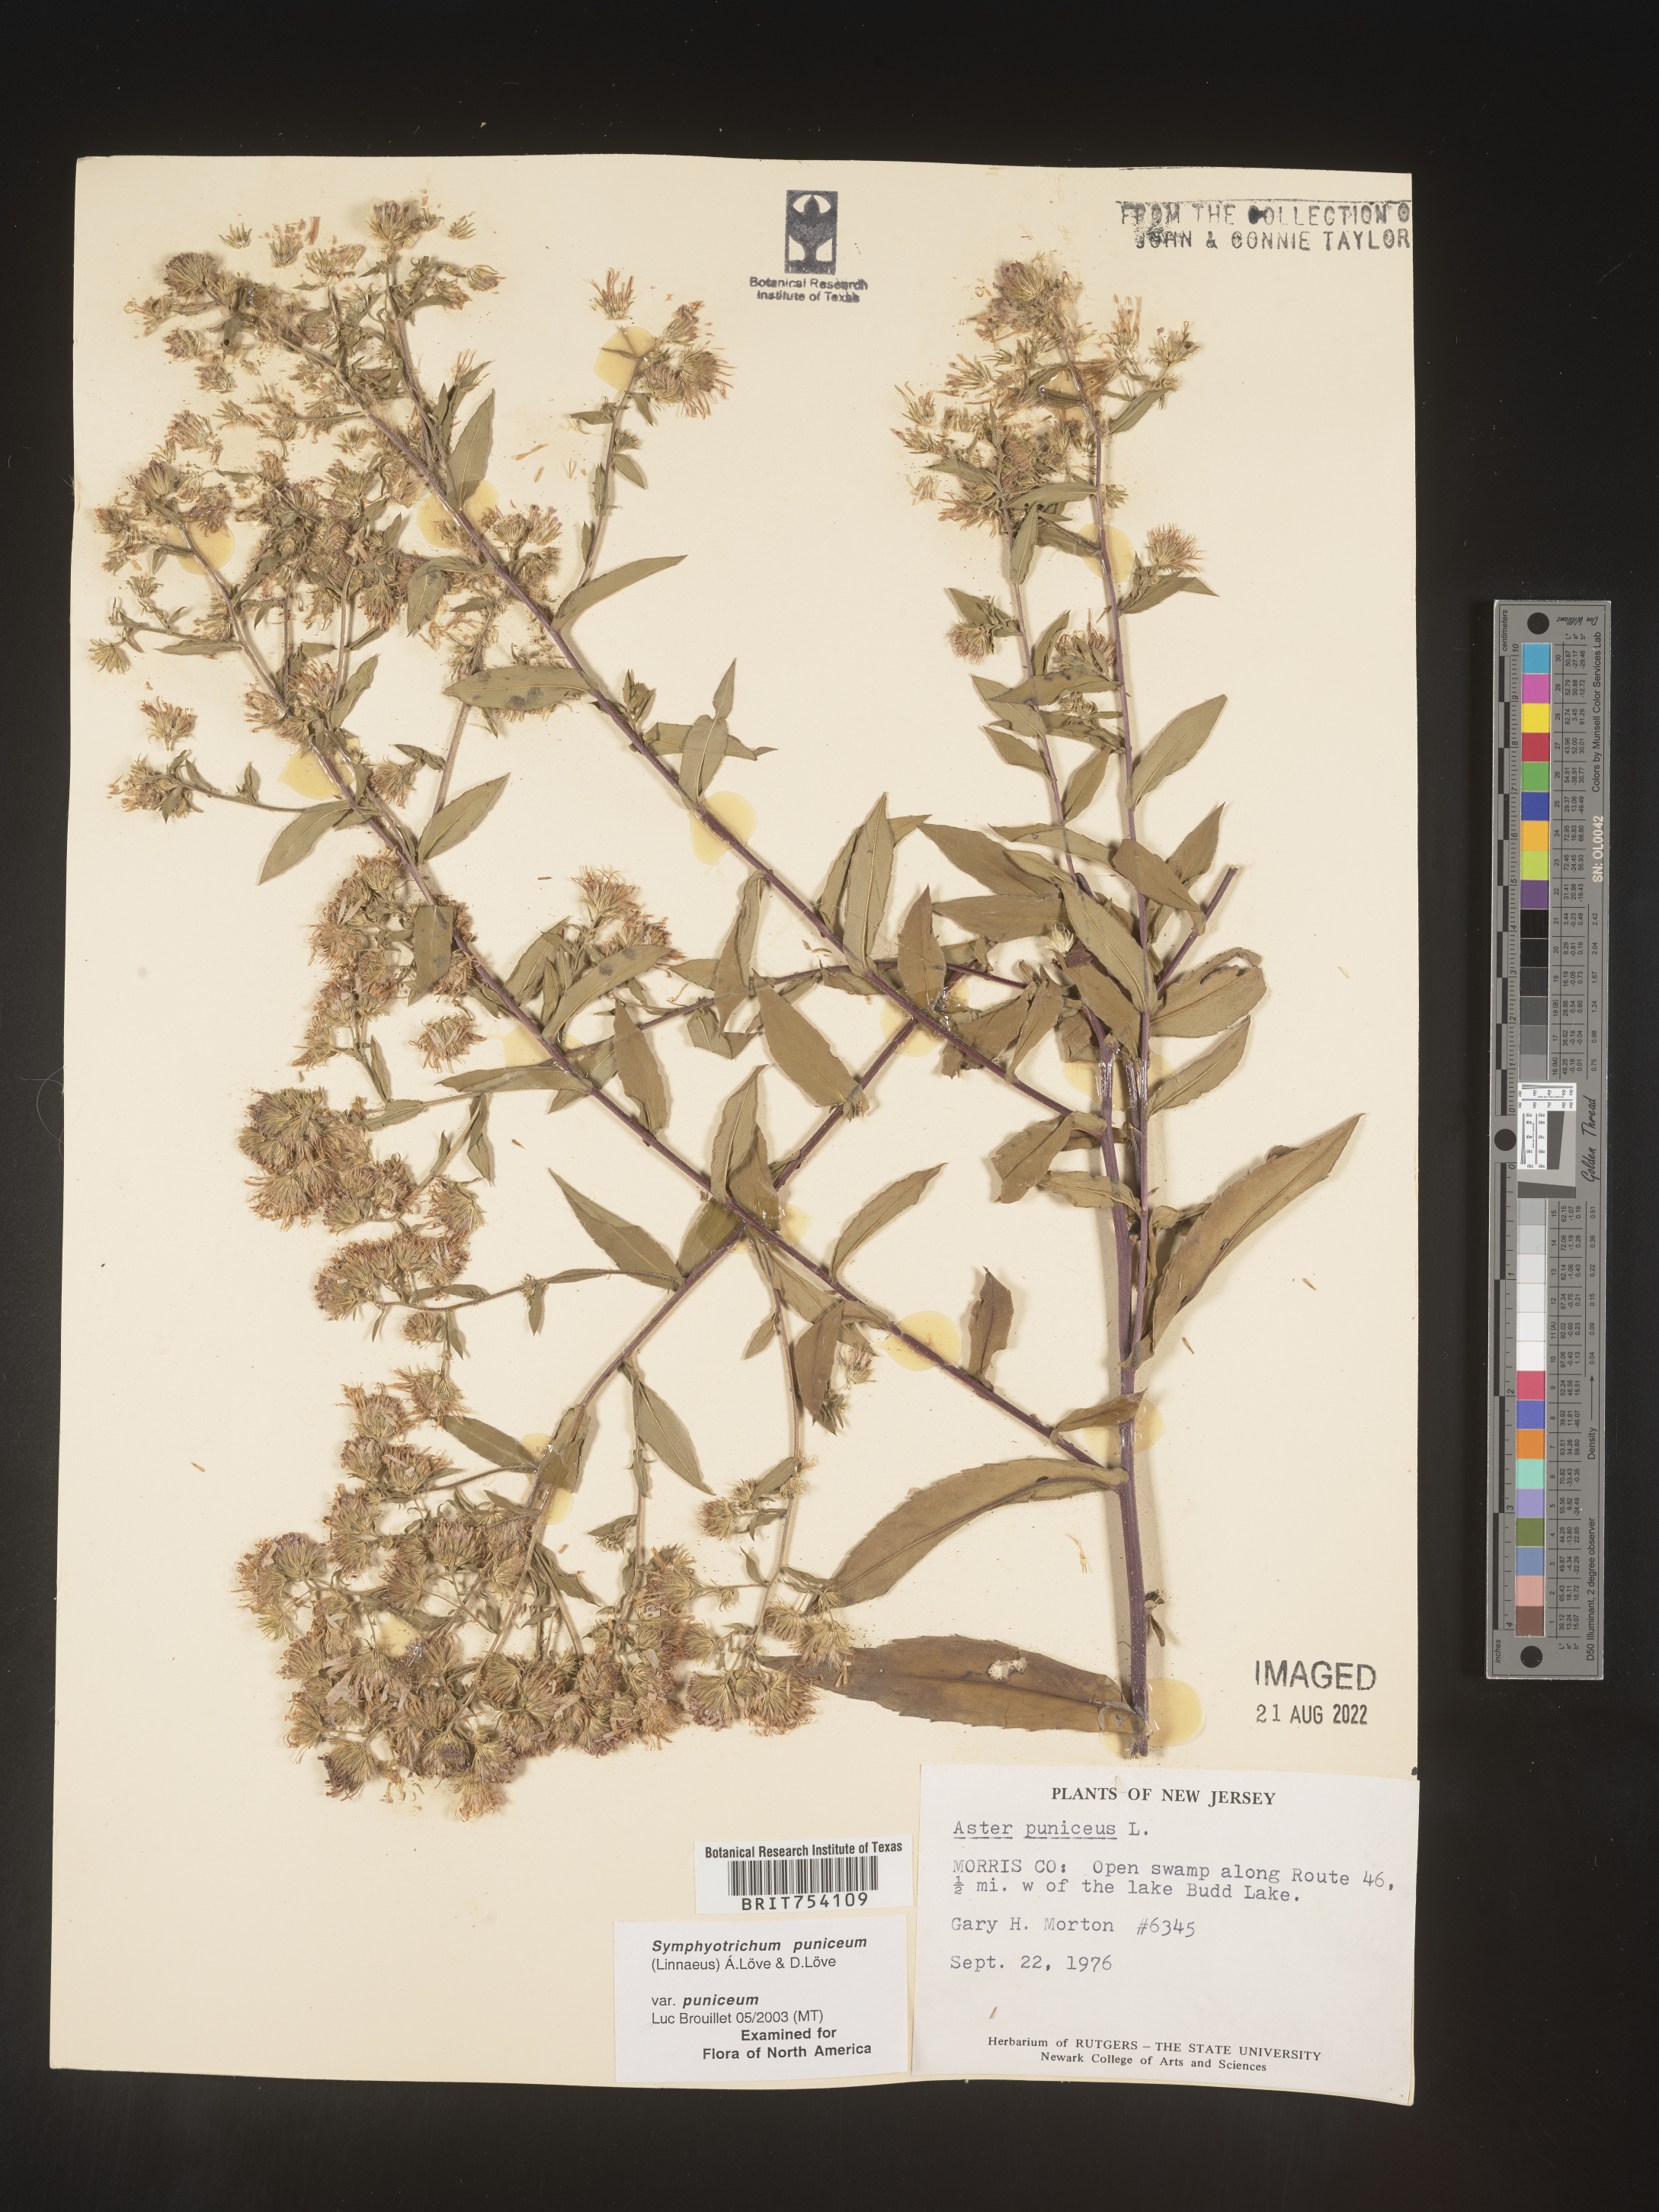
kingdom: Plantae
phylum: Tracheophyta
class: Magnoliopsida
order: Asterales
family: Asteraceae
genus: Symphyotrichum
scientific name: Symphyotrichum puniceum
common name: Bog aster
